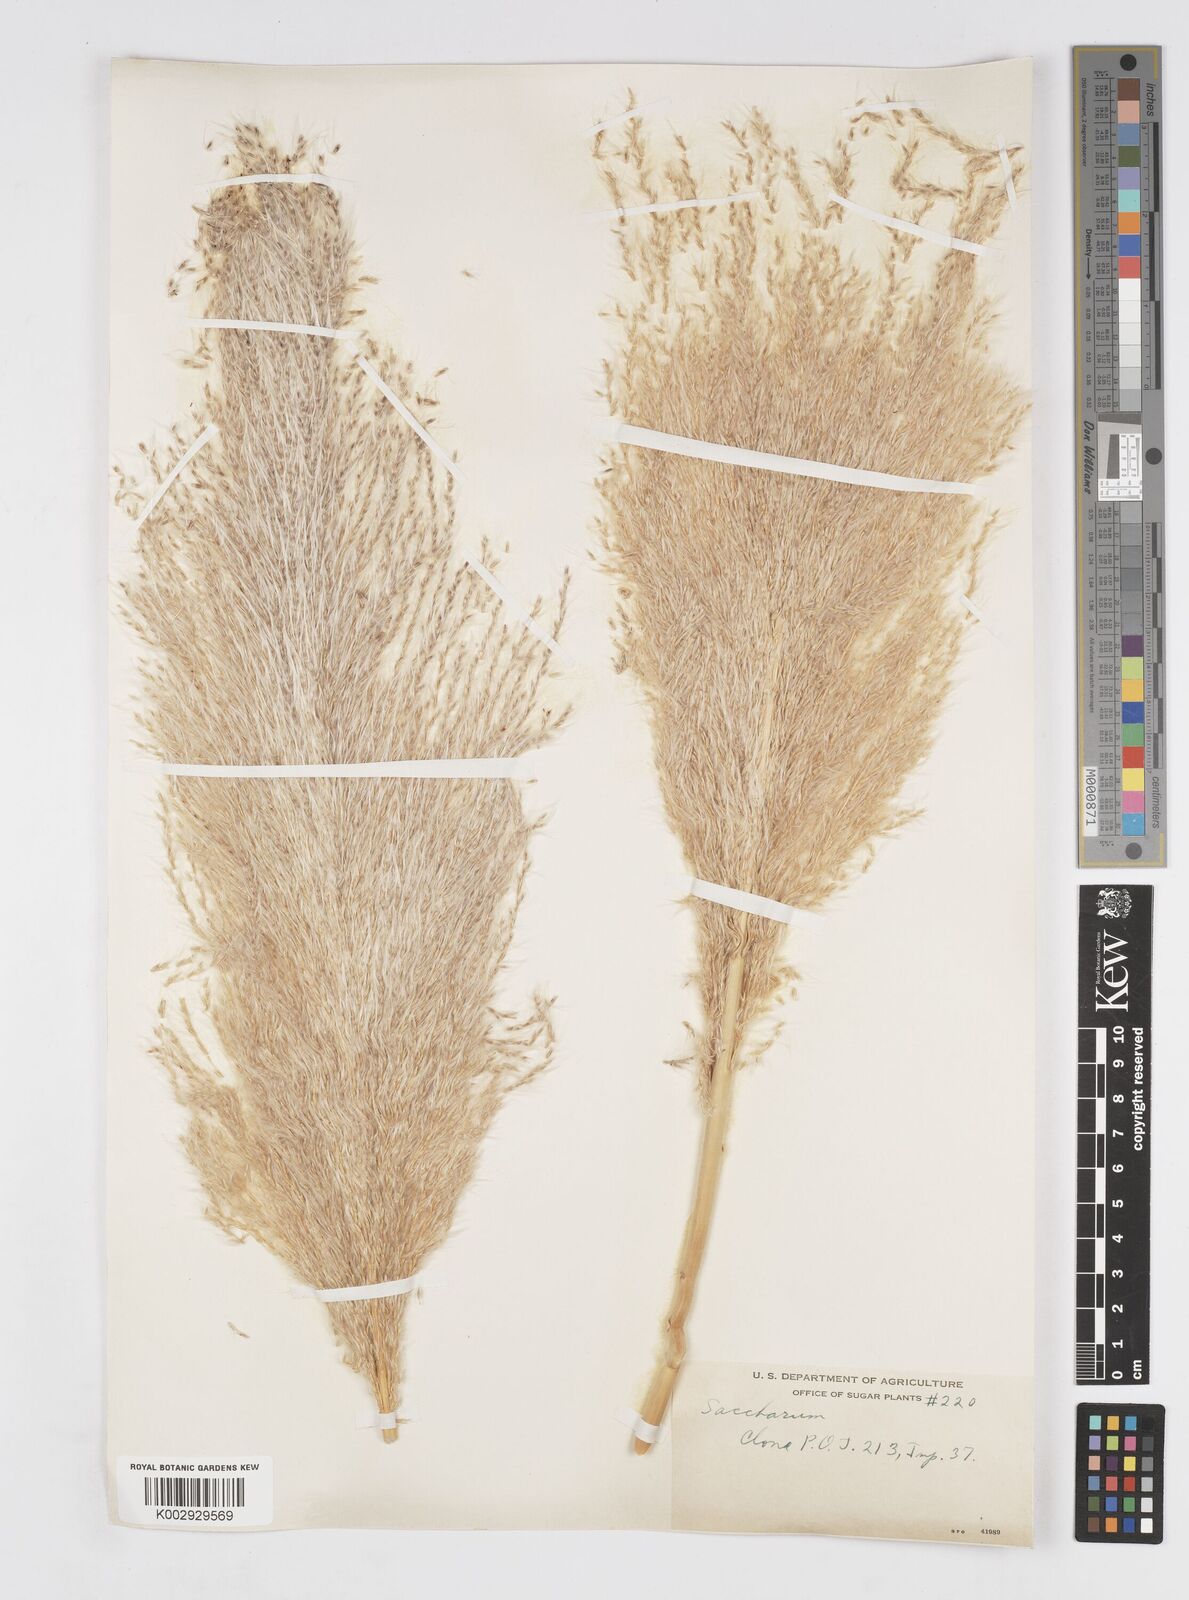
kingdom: Plantae
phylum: Tracheophyta
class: Liliopsida
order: Poales
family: Poaceae
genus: Saccharum
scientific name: Saccharum officinarum
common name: Sugarcane
